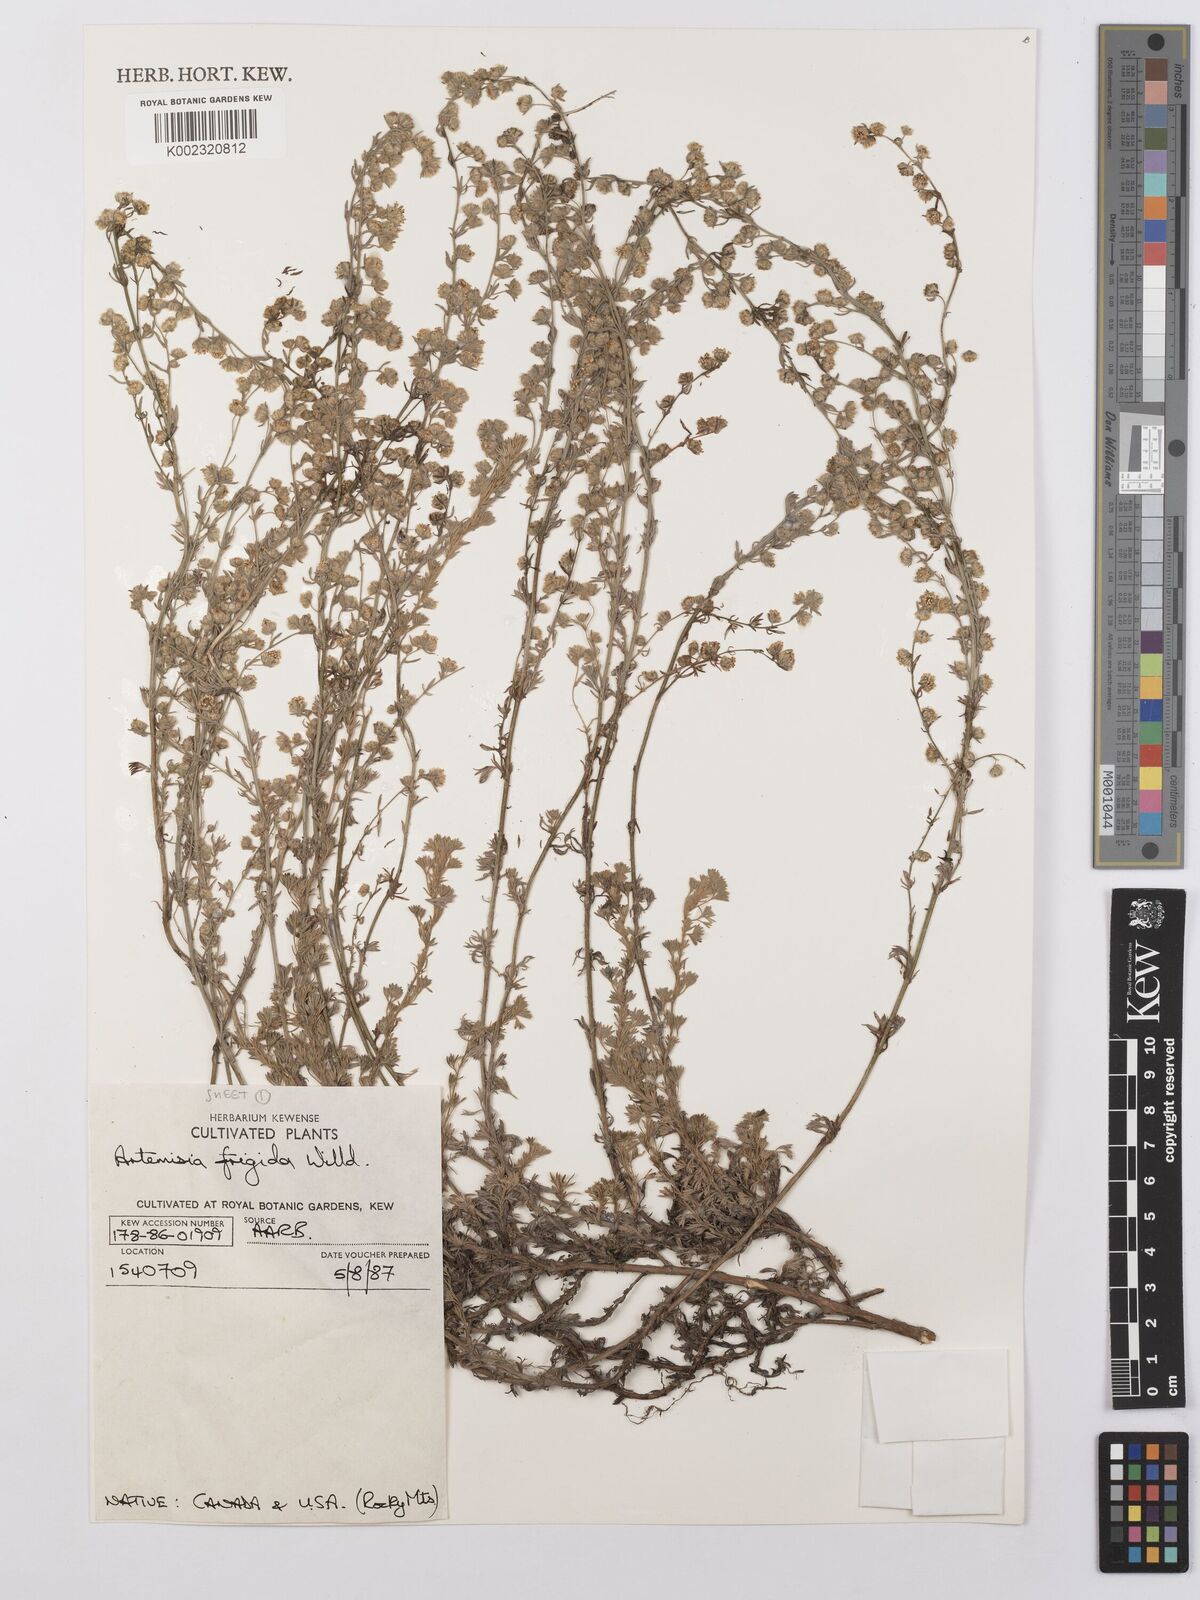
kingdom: Plantae
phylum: Tracheophyta
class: Magnoliopsida
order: Asterales
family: Asteraceae
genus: Artemisia
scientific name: Artemisia frigida
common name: Prairie sagewort
